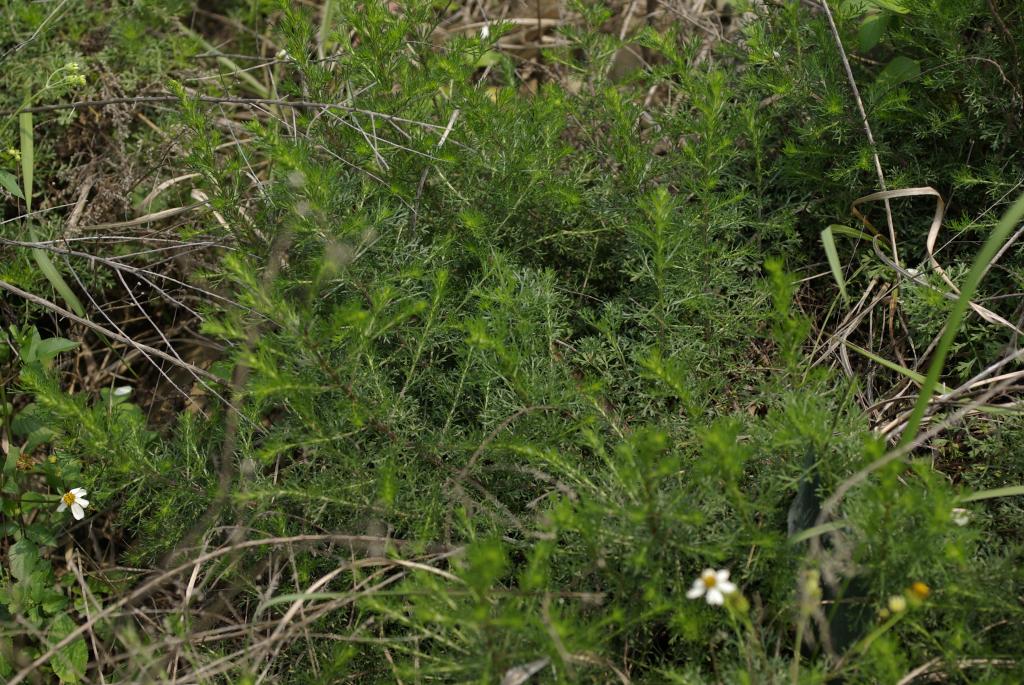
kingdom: Plantae
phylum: Tracheophyta
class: Magnoliopsida
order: Asterales
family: Asteraceae
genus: Artemisia
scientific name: Artemisia capillaris
